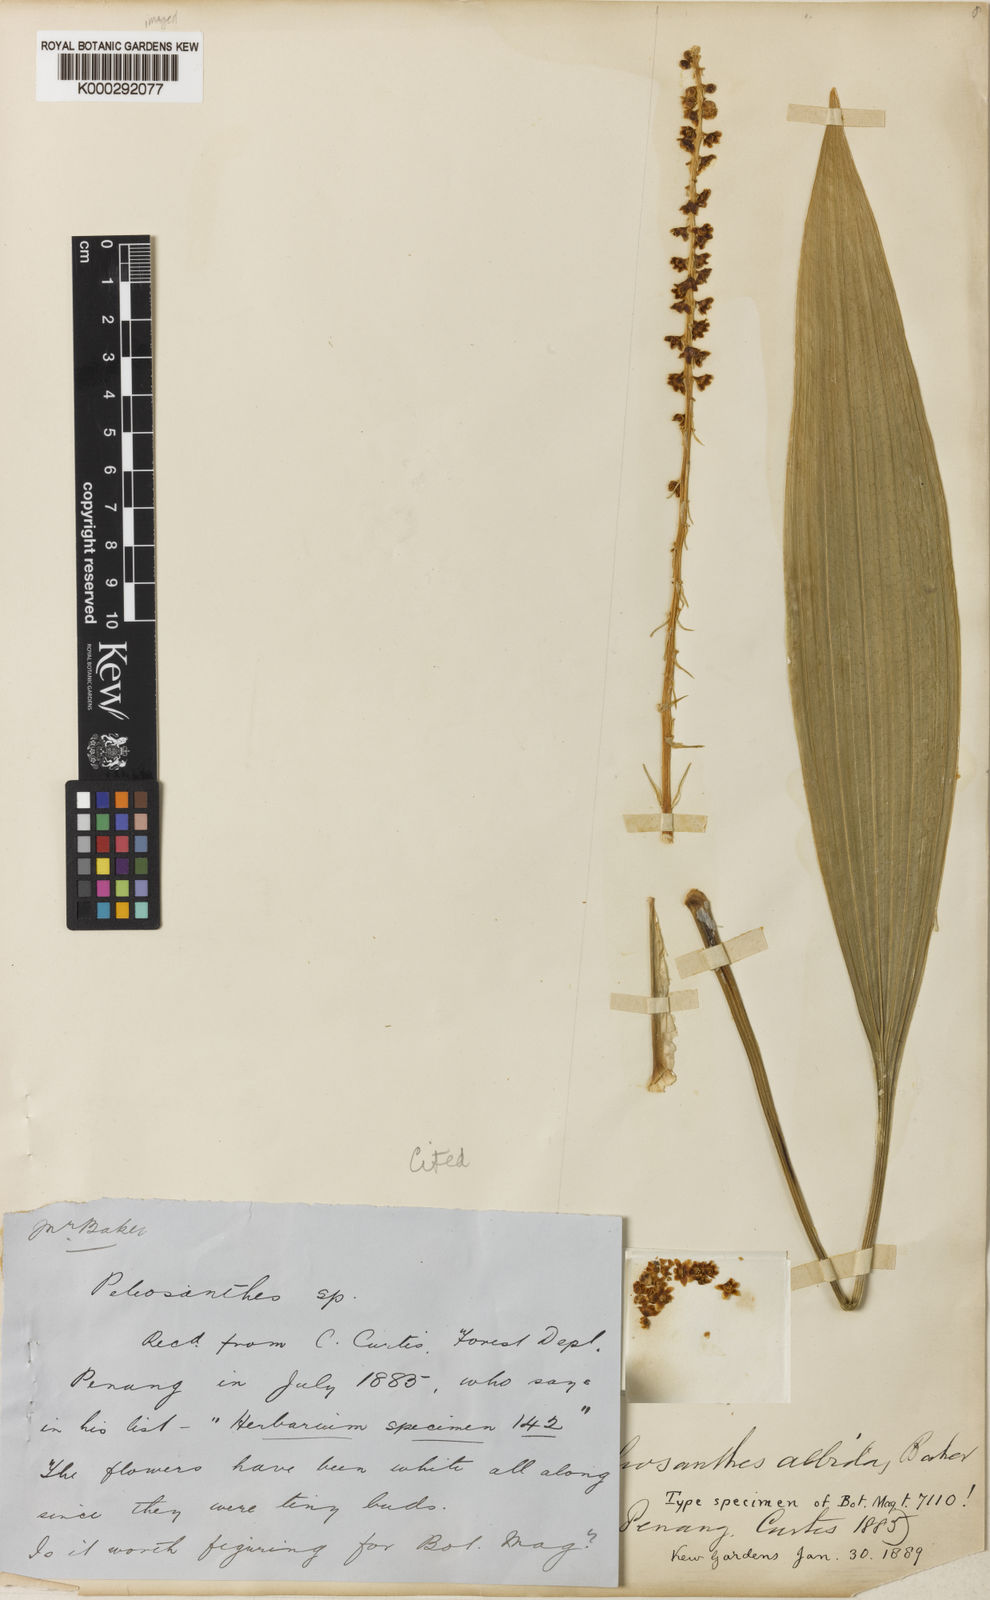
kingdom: Plantae
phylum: Tracheophyta
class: Liliopsida
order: Asparagales
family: Asparagaceae
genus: Peliosanthes
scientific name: Peliosanthes teta
